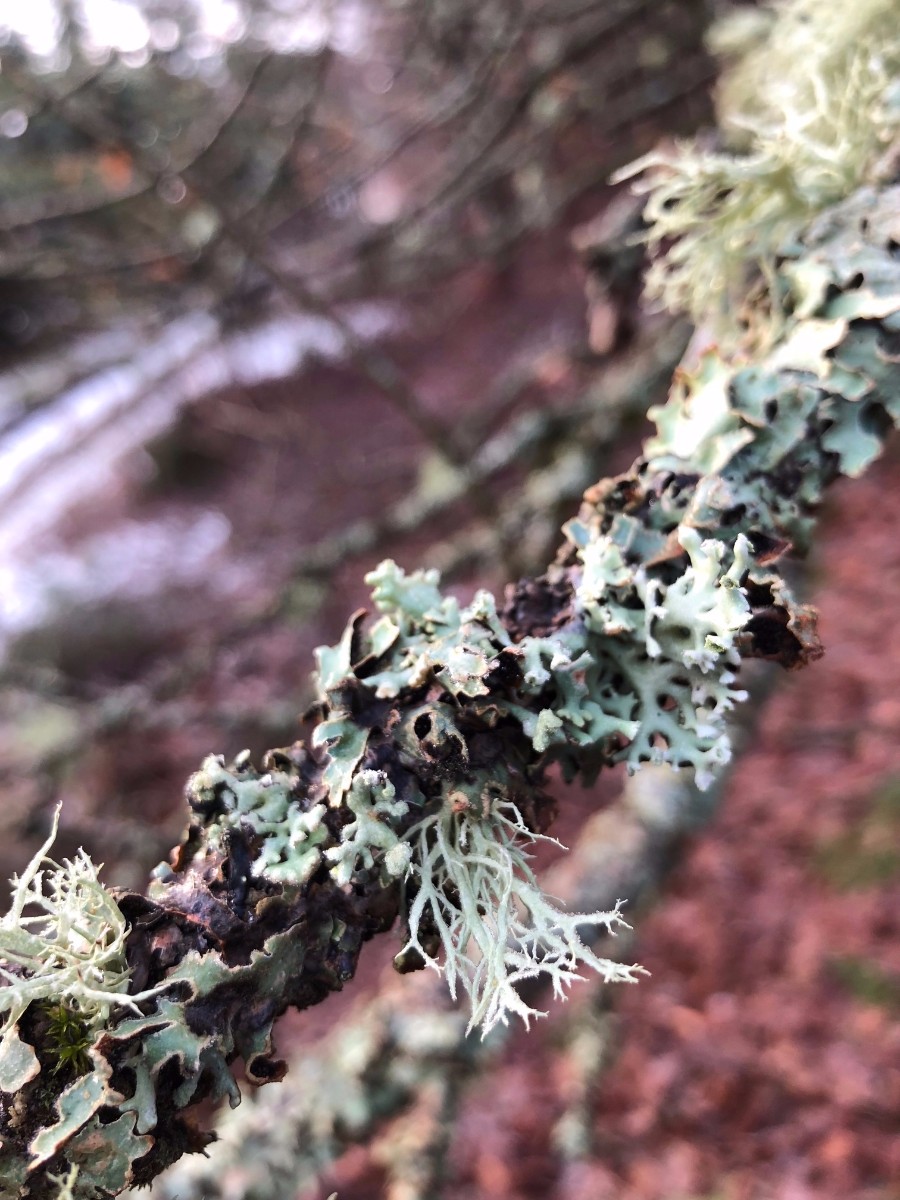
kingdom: Fungi
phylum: Ascomycota
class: Lecanoromycetes
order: Lecanorales
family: Parmeliaceae
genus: Hypogymnia
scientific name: Hypogymnia physodes
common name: almindelig kvistlav
